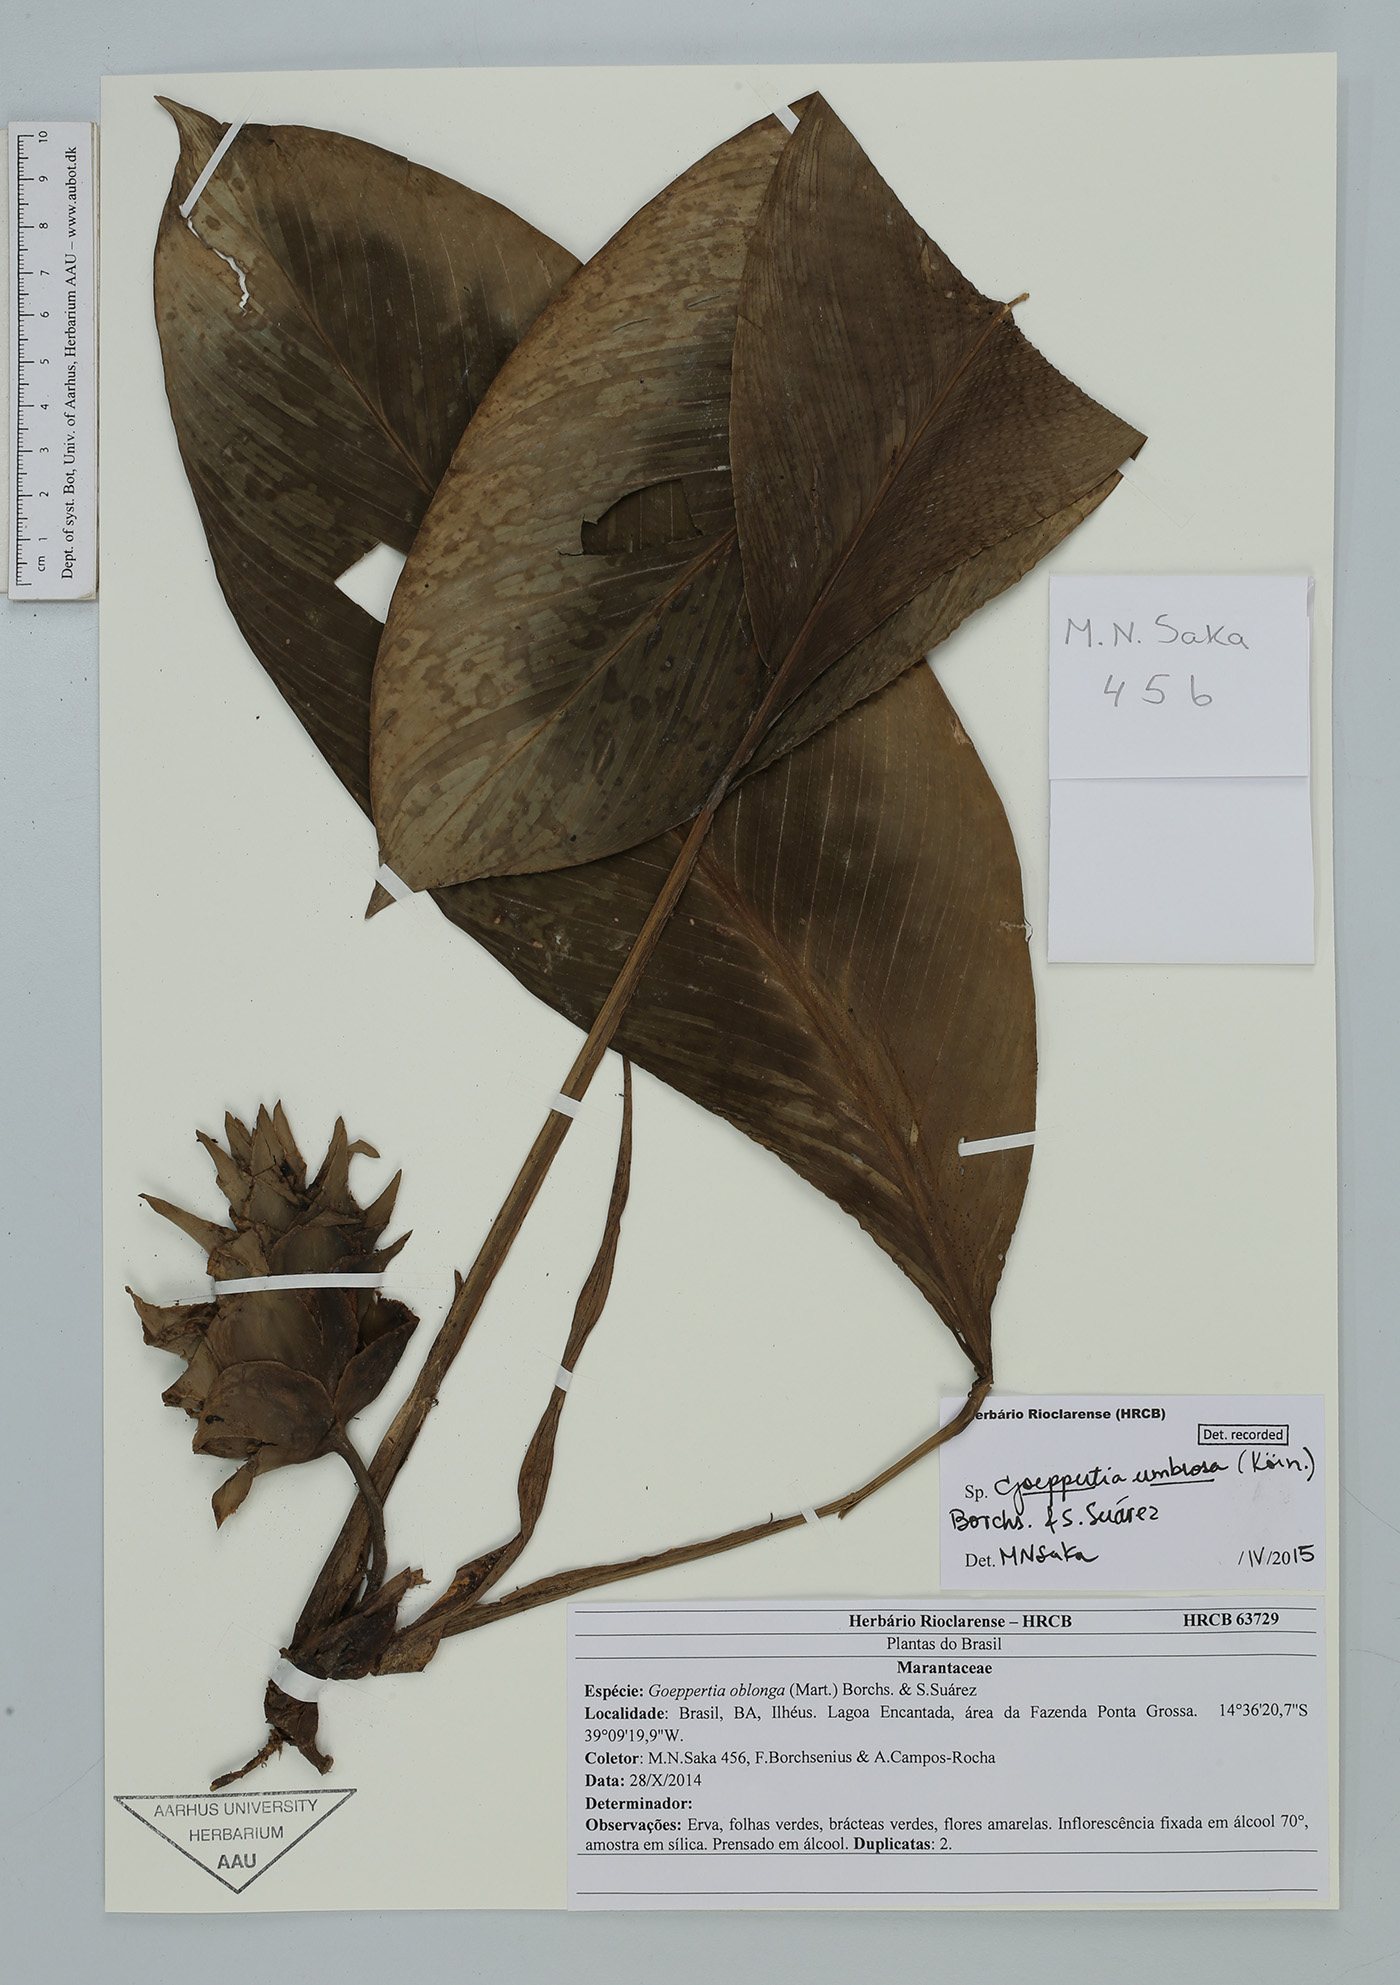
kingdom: Plantae
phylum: Tracheophyta
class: Liliopsida
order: Zingiberales
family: Marantaceae
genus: Goeppertia
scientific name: Goeppertia umbrosa
